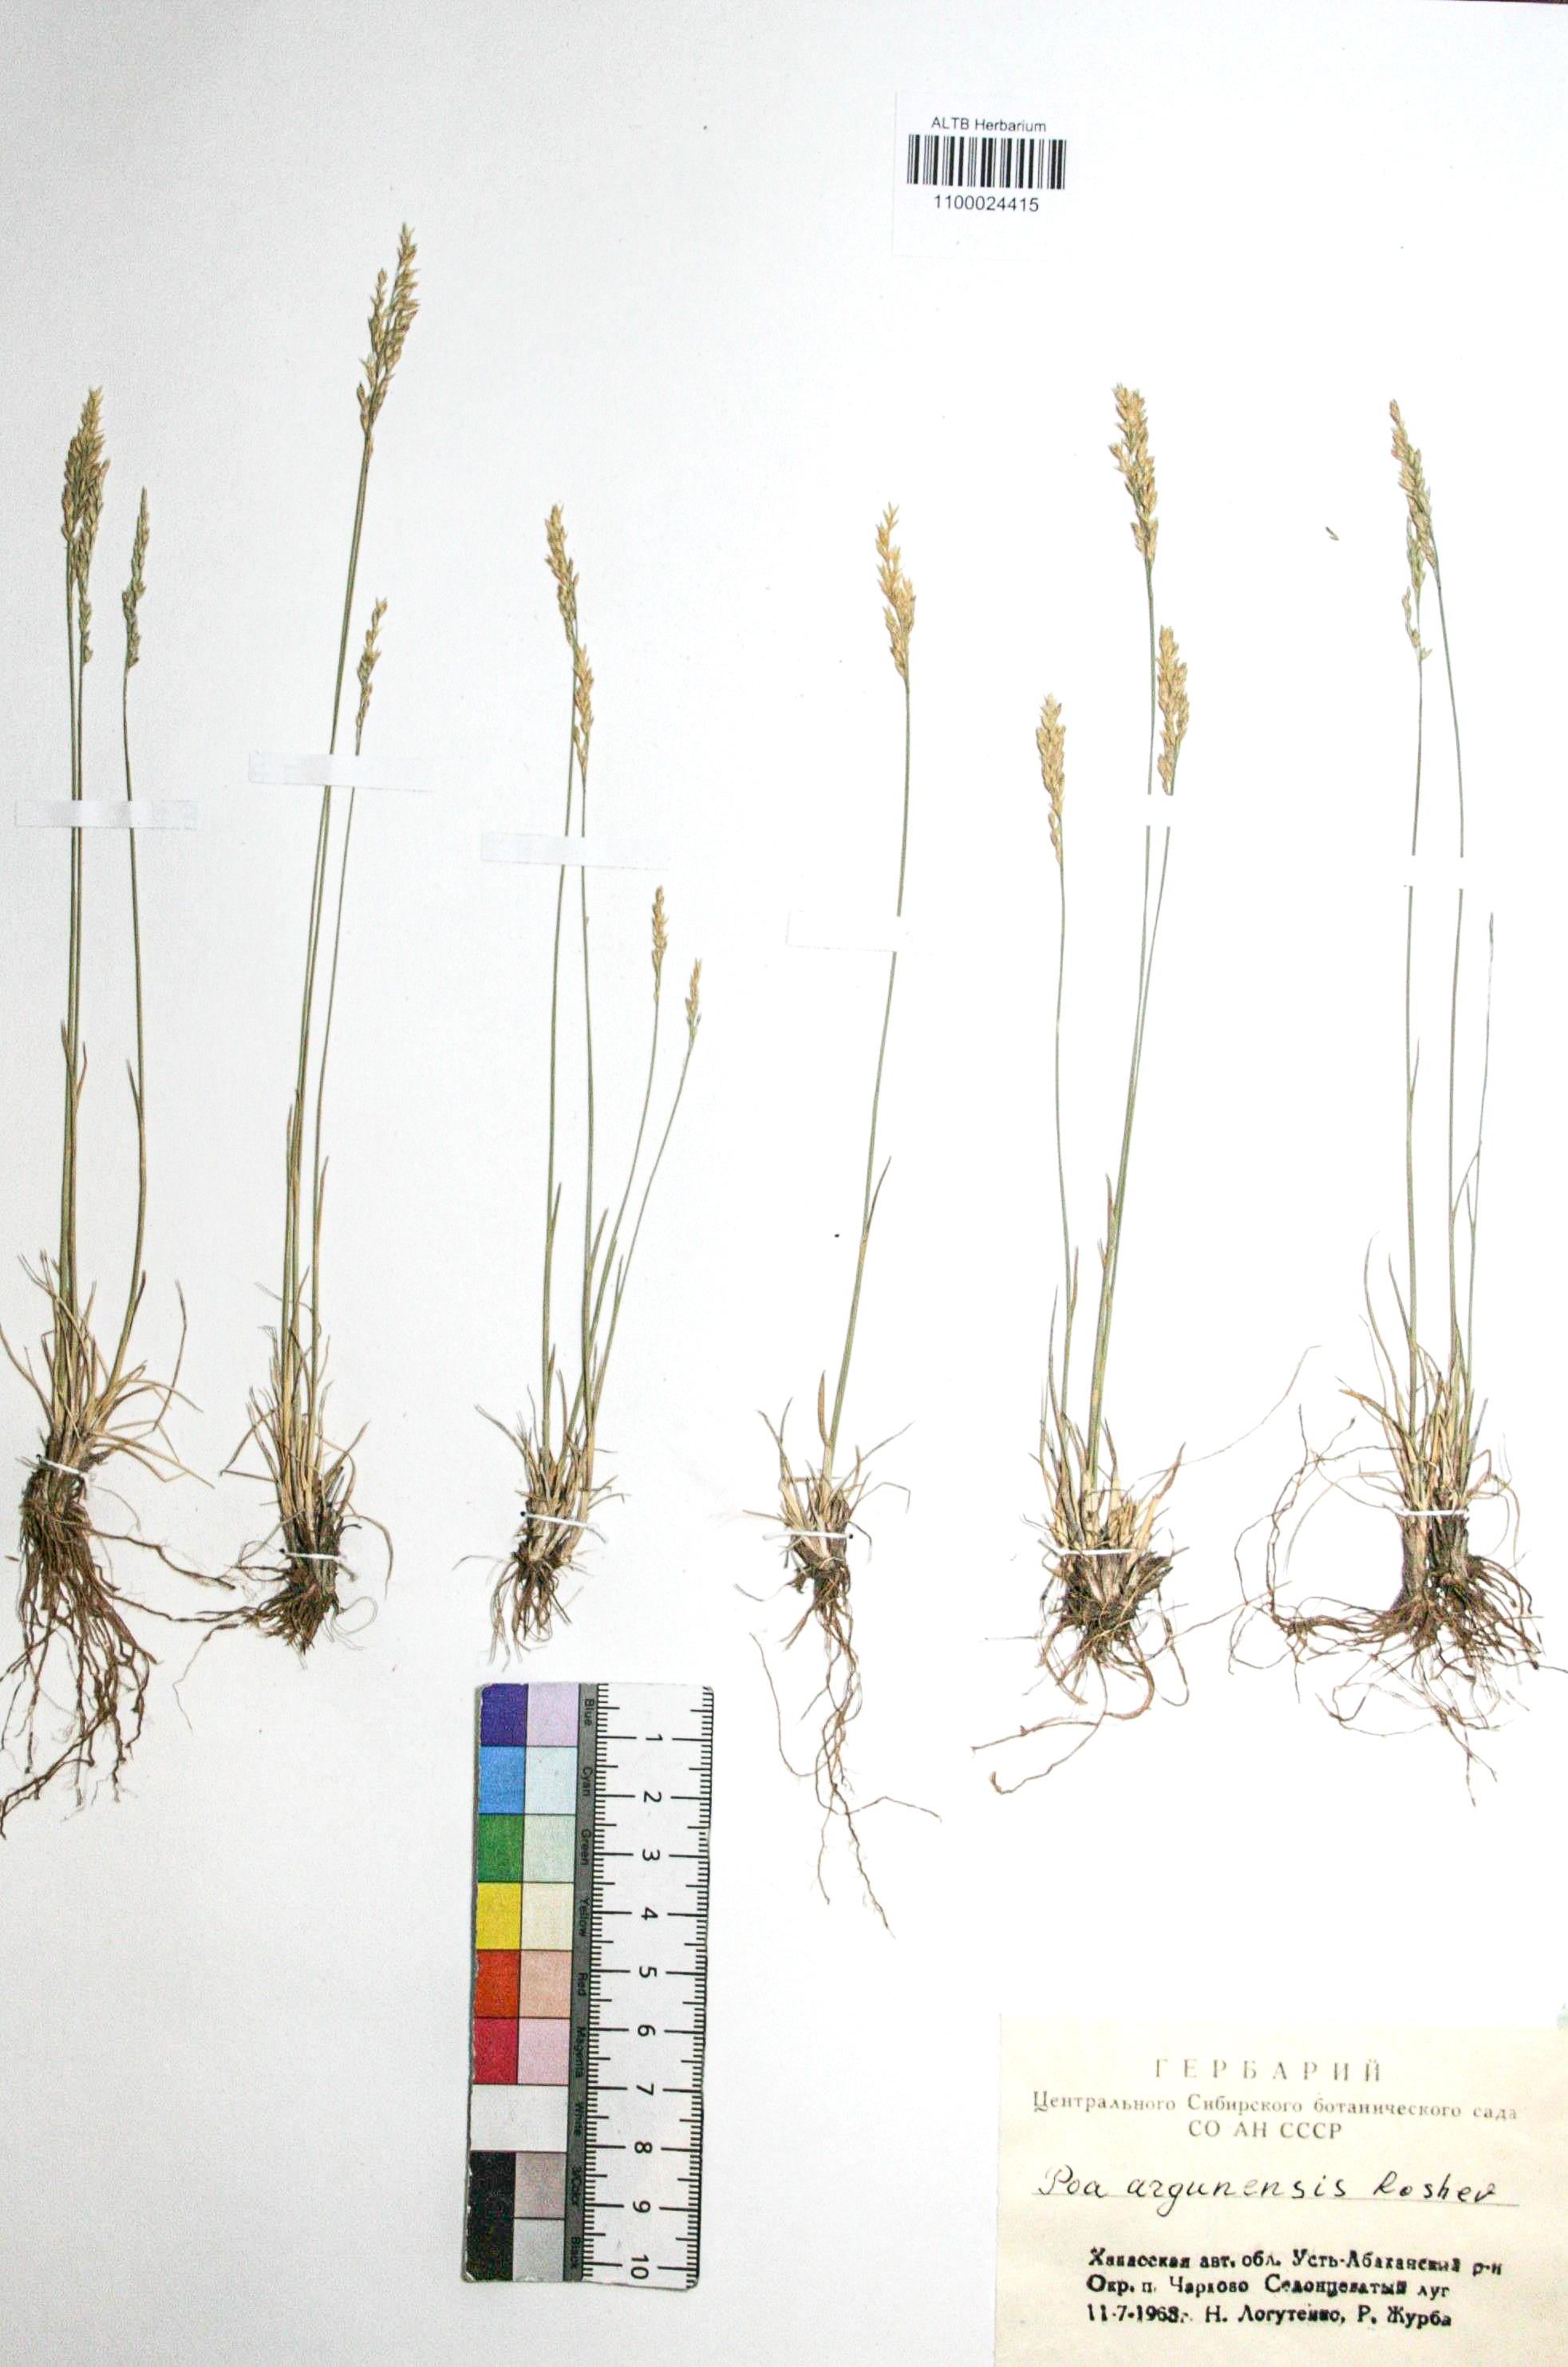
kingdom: Plantae
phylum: Tracheophyta
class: Liliopsida
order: Poales
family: Poaceae
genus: Poa
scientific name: Poa attenuata
